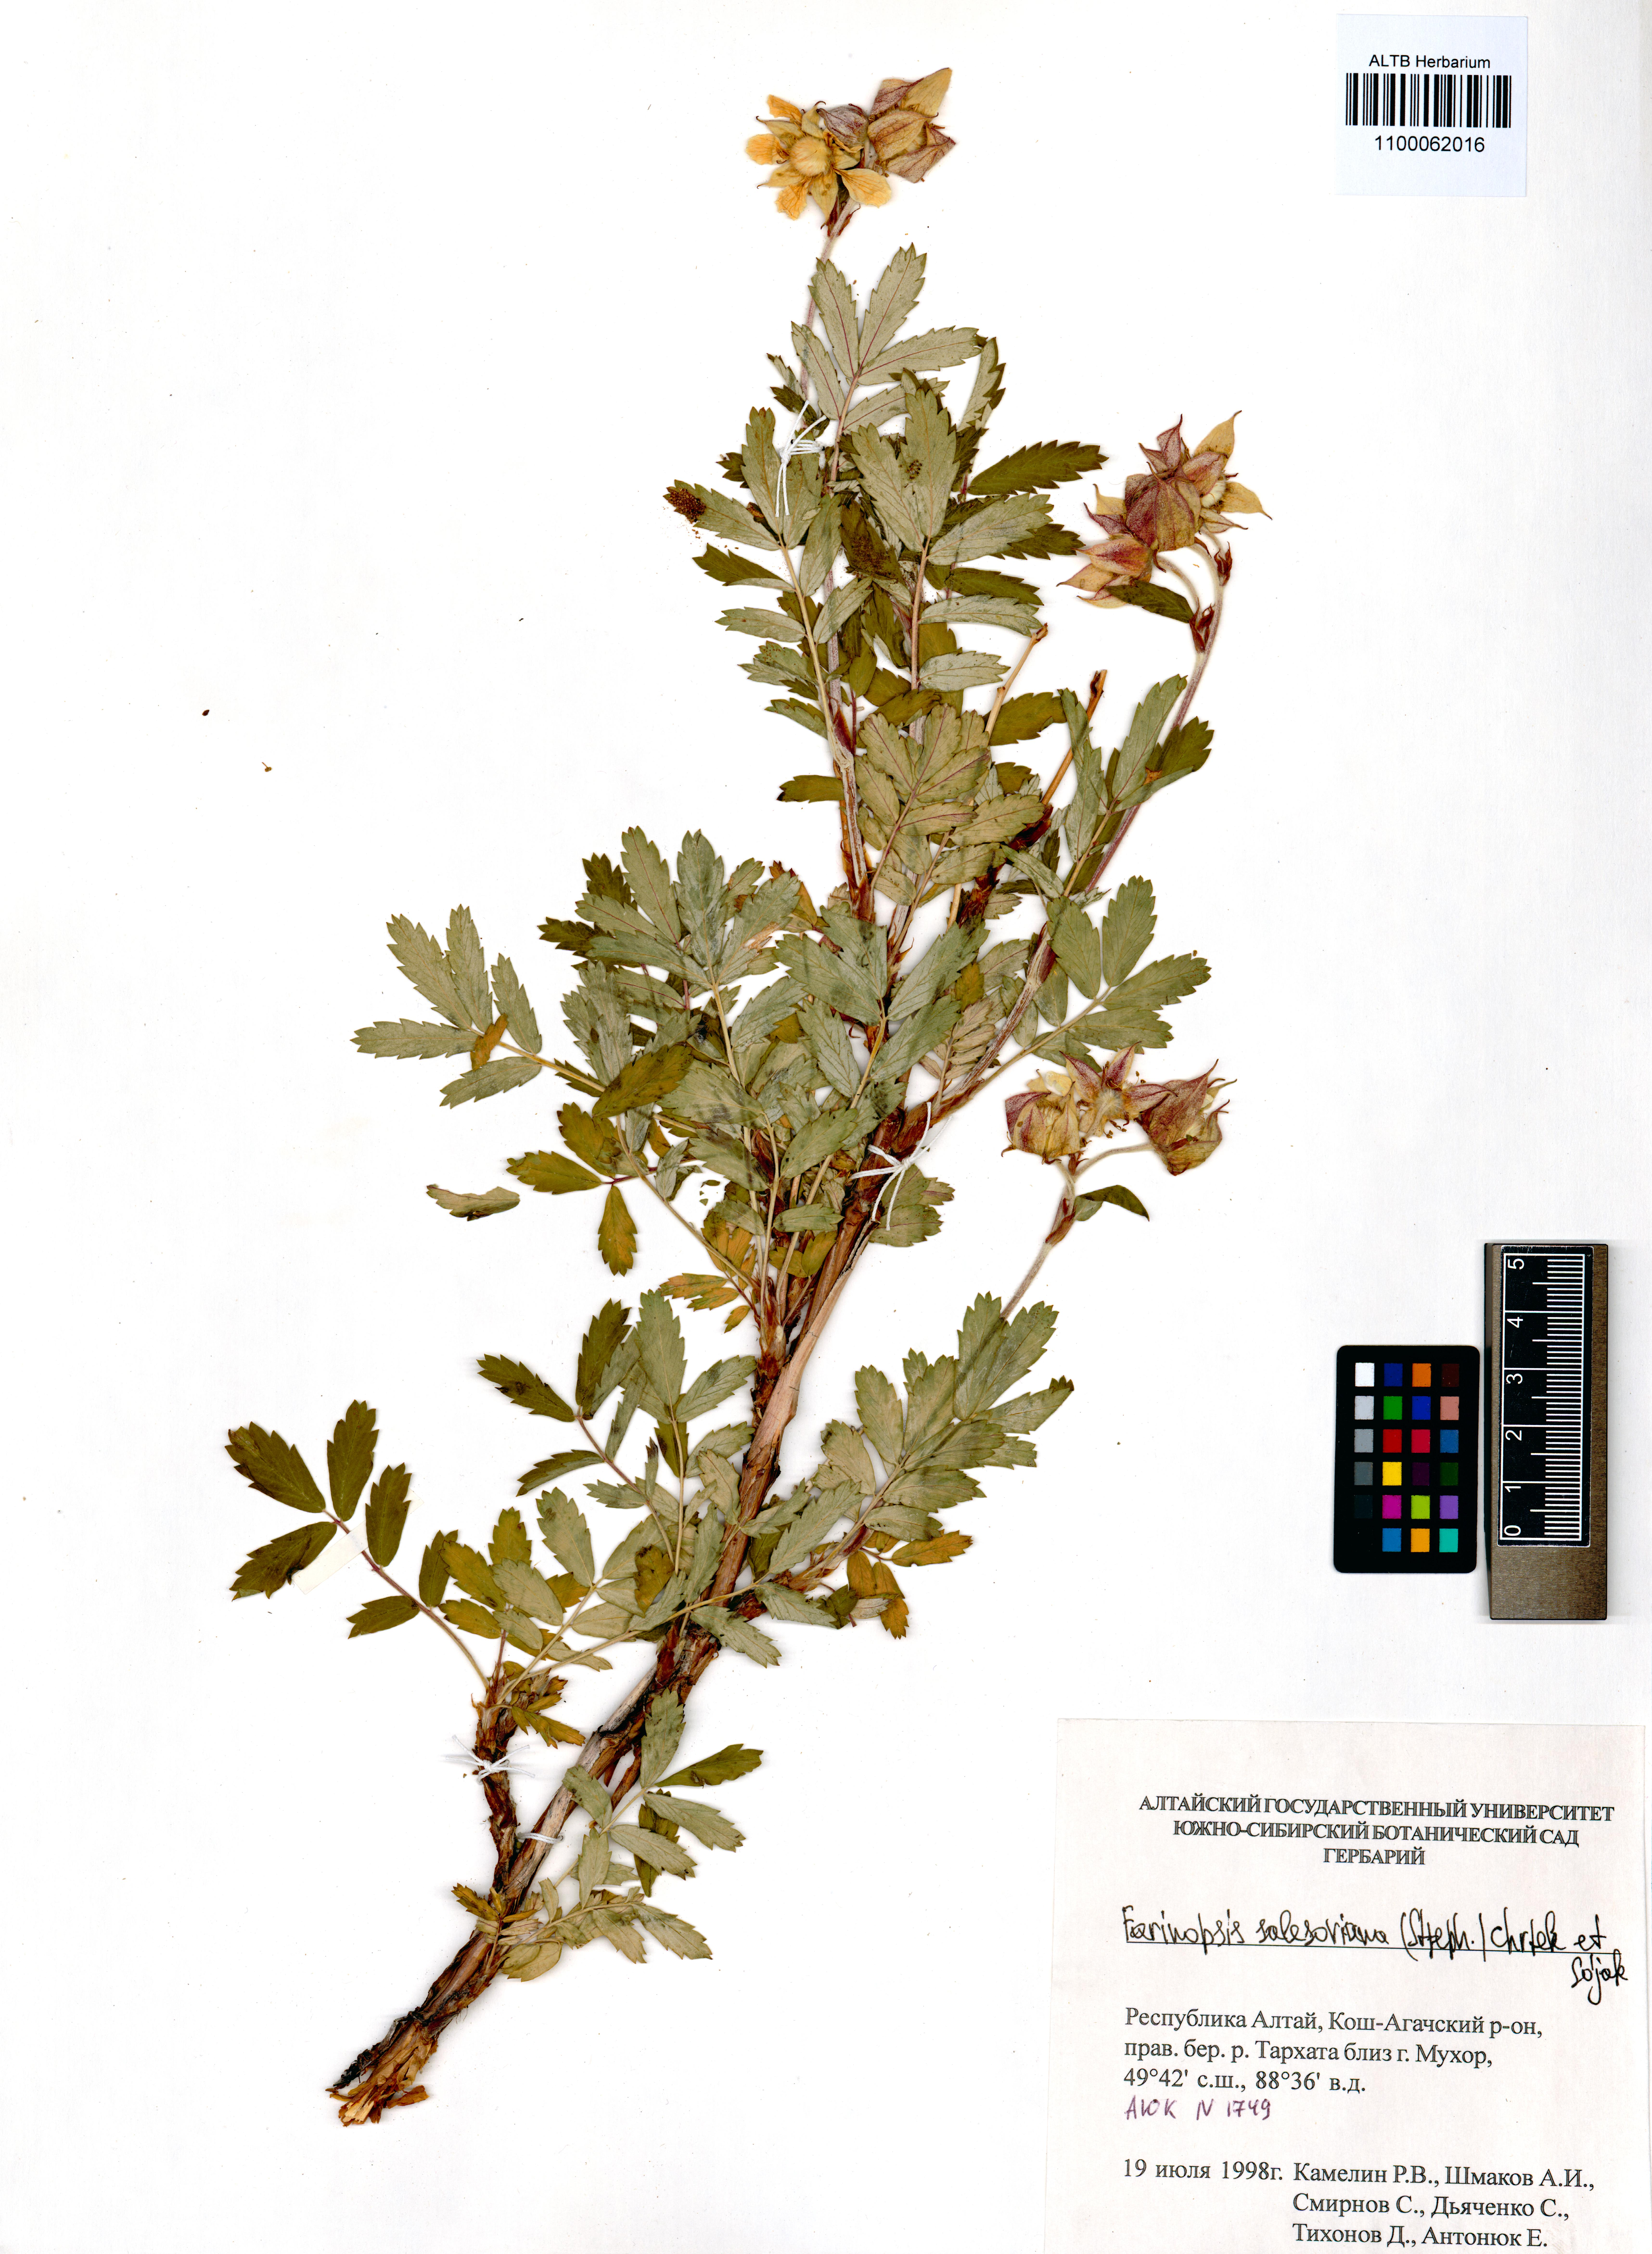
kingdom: Plantae
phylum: Tracheophyta
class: Magnoliopsida
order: Rosales
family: Rosaceae
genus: Farinopsis
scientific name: Farinopsis salesoviana
